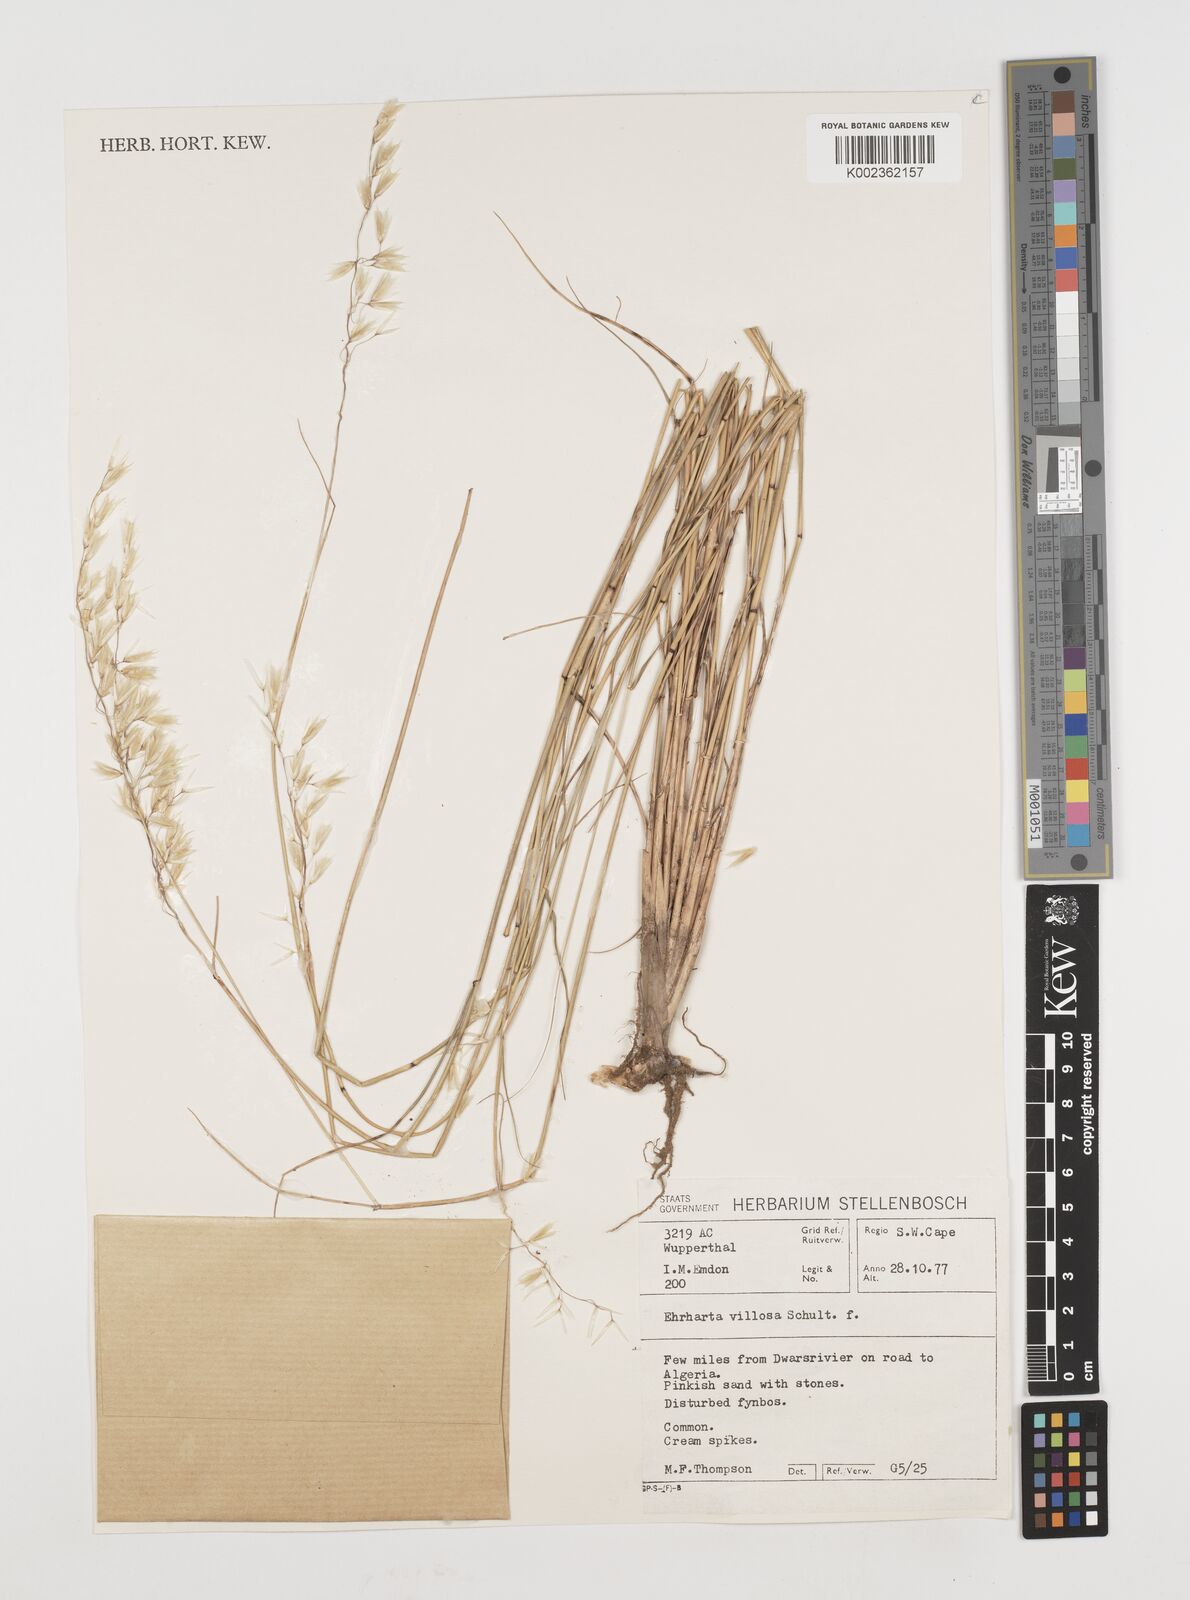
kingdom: Plantae
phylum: Tracheophyta
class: Liliopsida
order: Poales
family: Poaceae
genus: Ehrharta
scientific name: Ehrharta villosa
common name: Pyp grass
